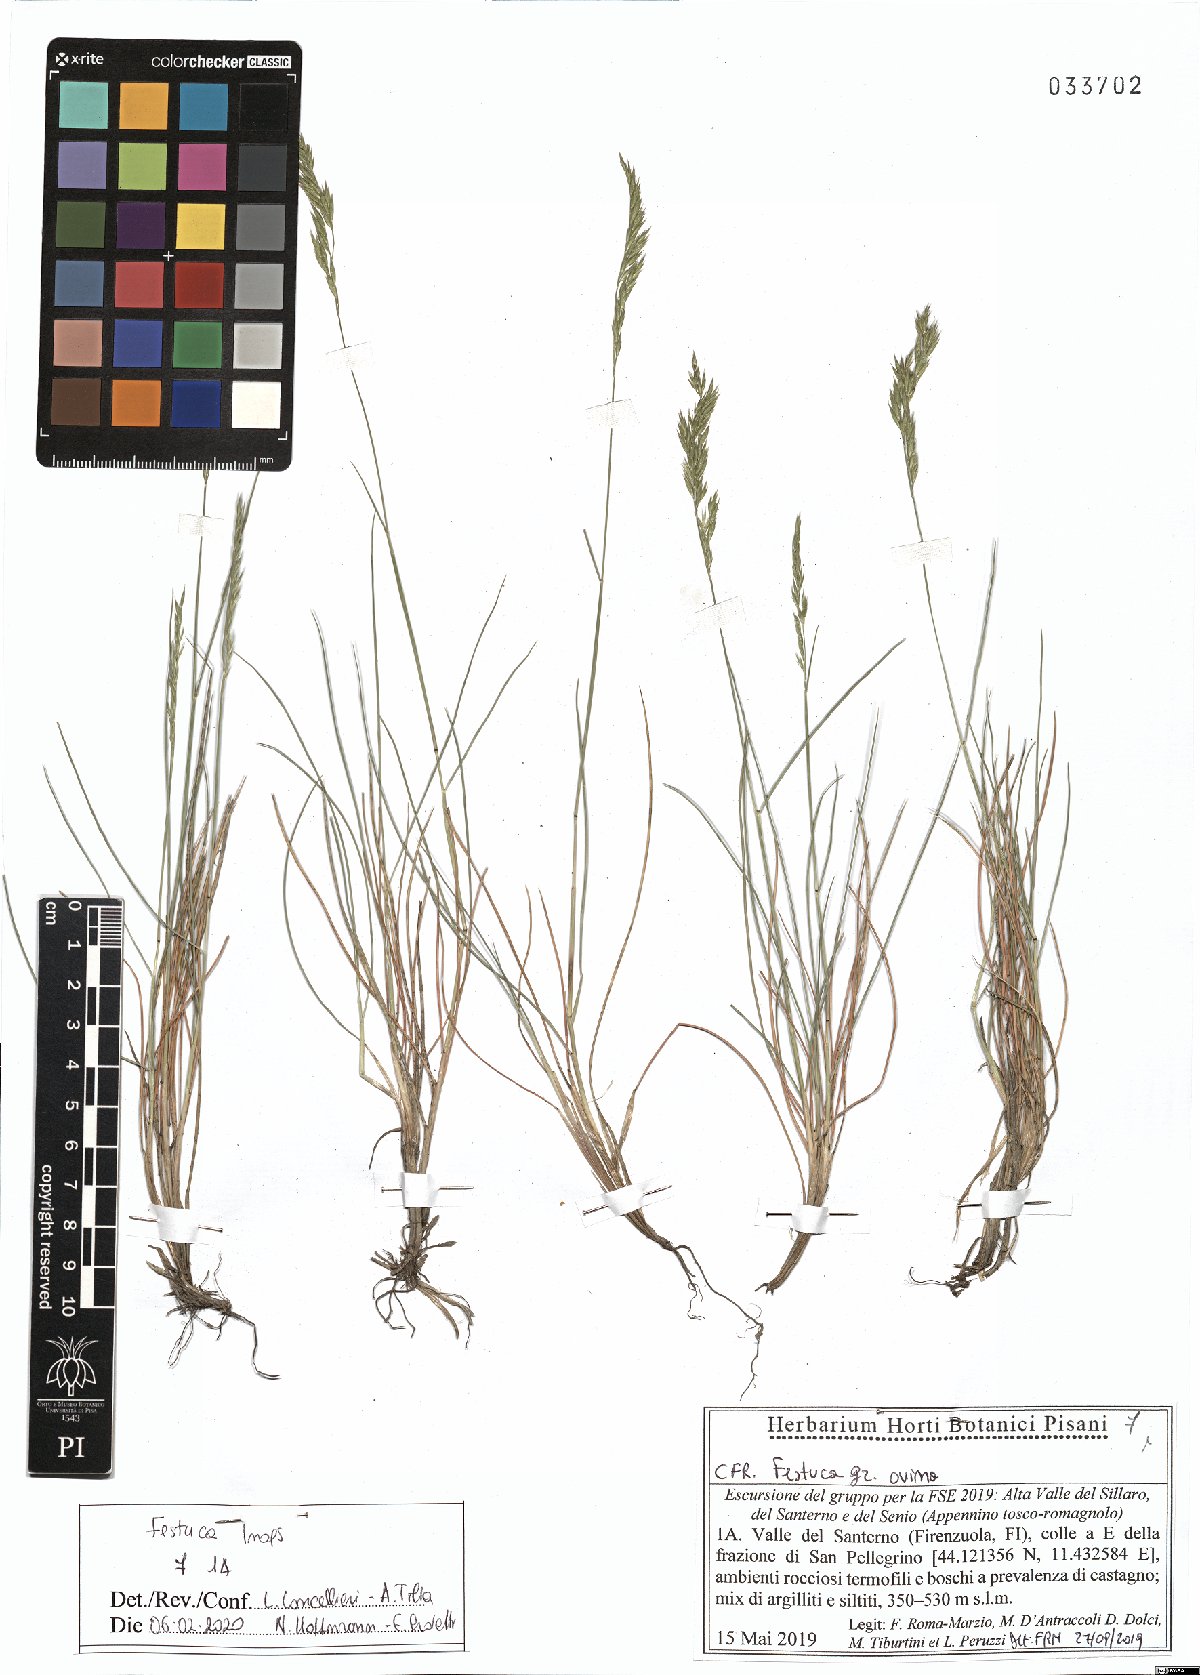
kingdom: Plantae
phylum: Tracheophyta
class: Liliopsida
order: Poales
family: Poaceae
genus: Festuca
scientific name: Festuca inops
